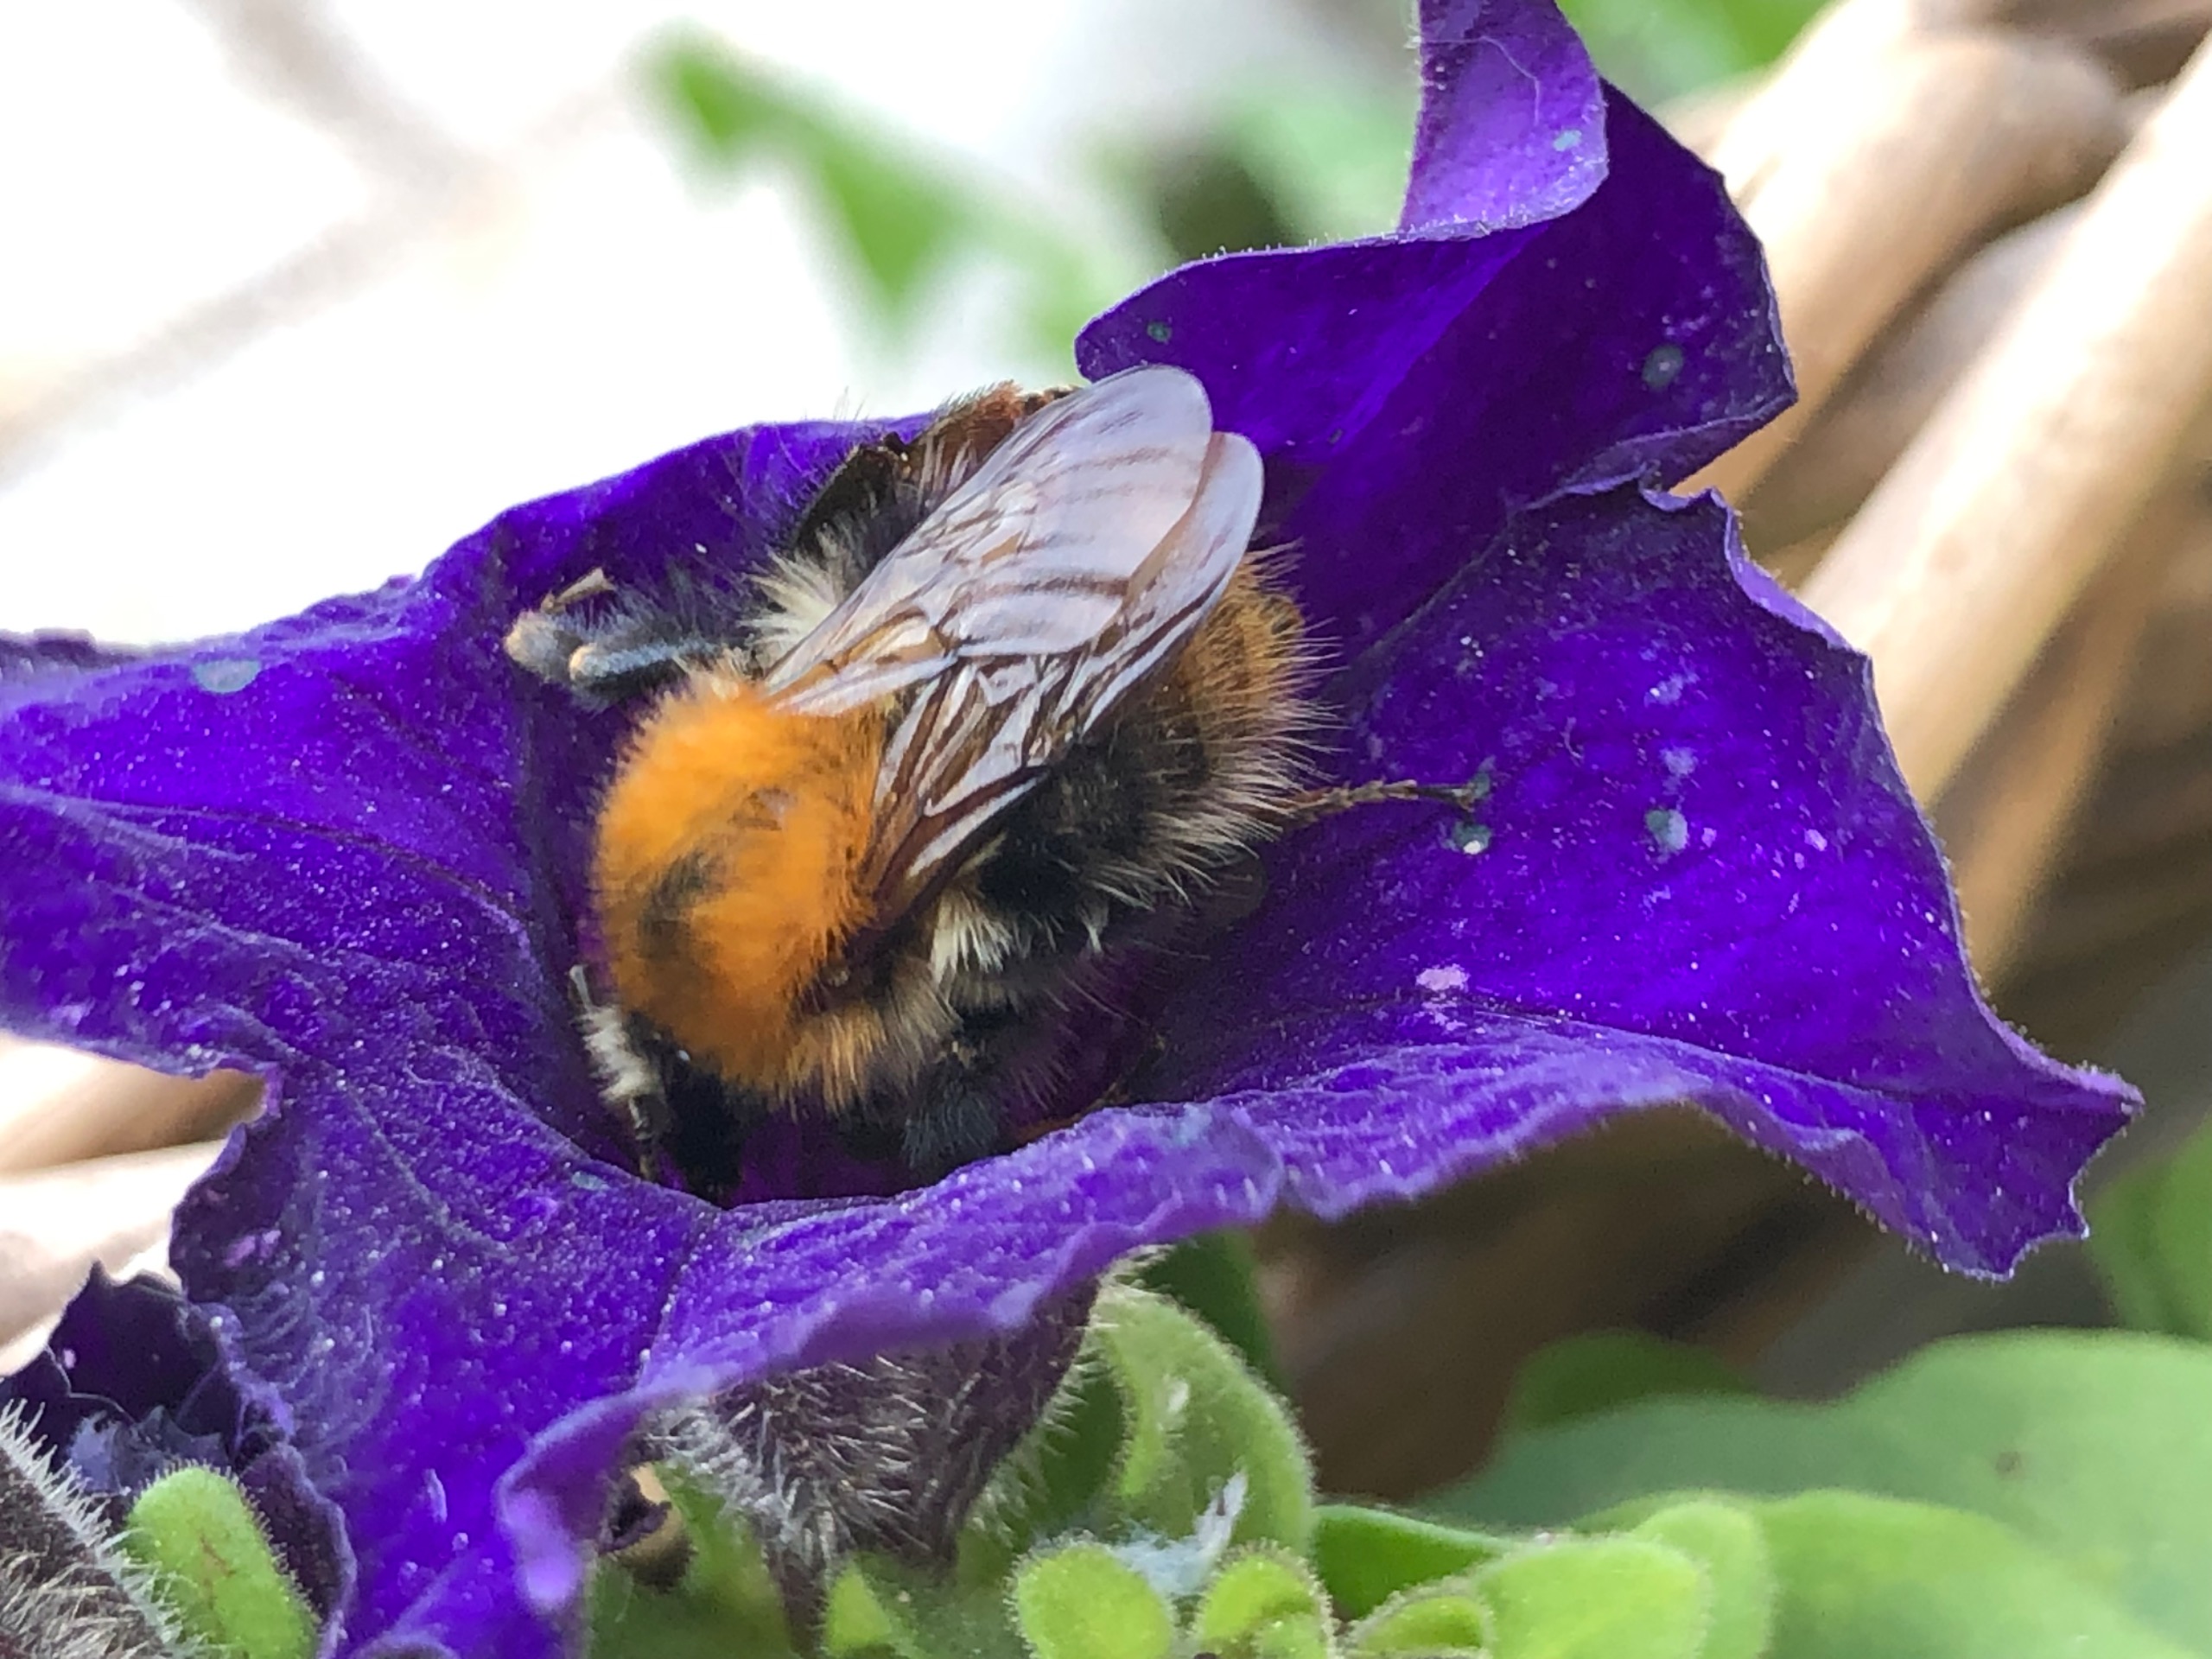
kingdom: Animalia
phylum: Arthropoda
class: Insecta
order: Hymenoptera
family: Apidae
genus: Bombus
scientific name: Bombus pascuorum
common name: Agerhumle
